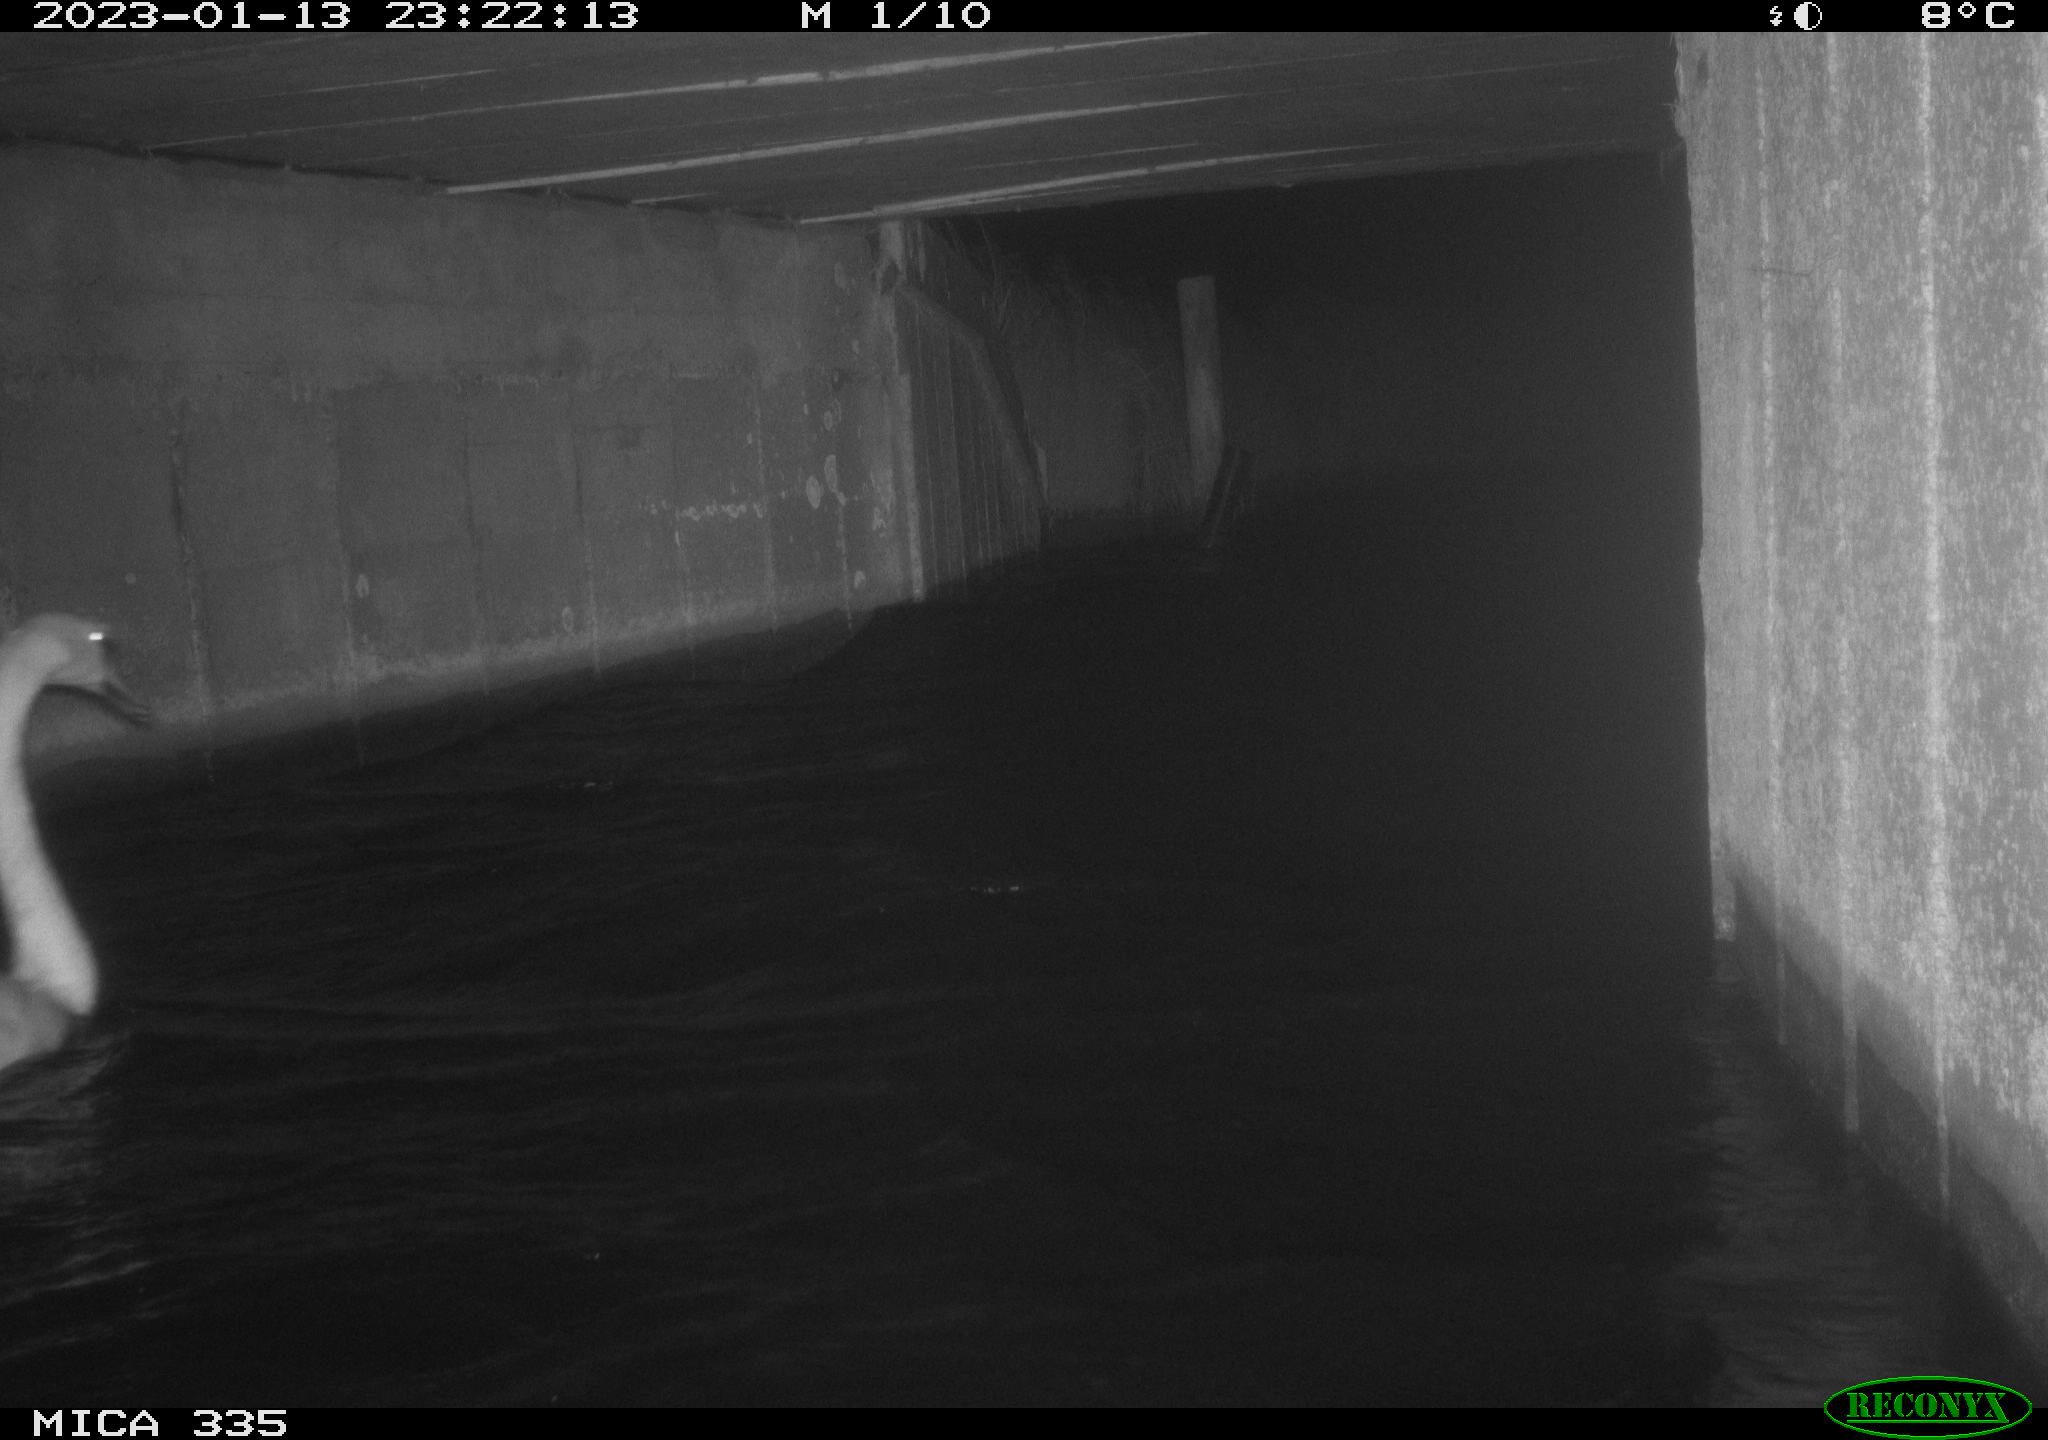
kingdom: Animalia
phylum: Chordata
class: Aves
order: Anseriformes
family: Anatidae
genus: Cygnus
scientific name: Cygnus olor
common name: Mute swan
